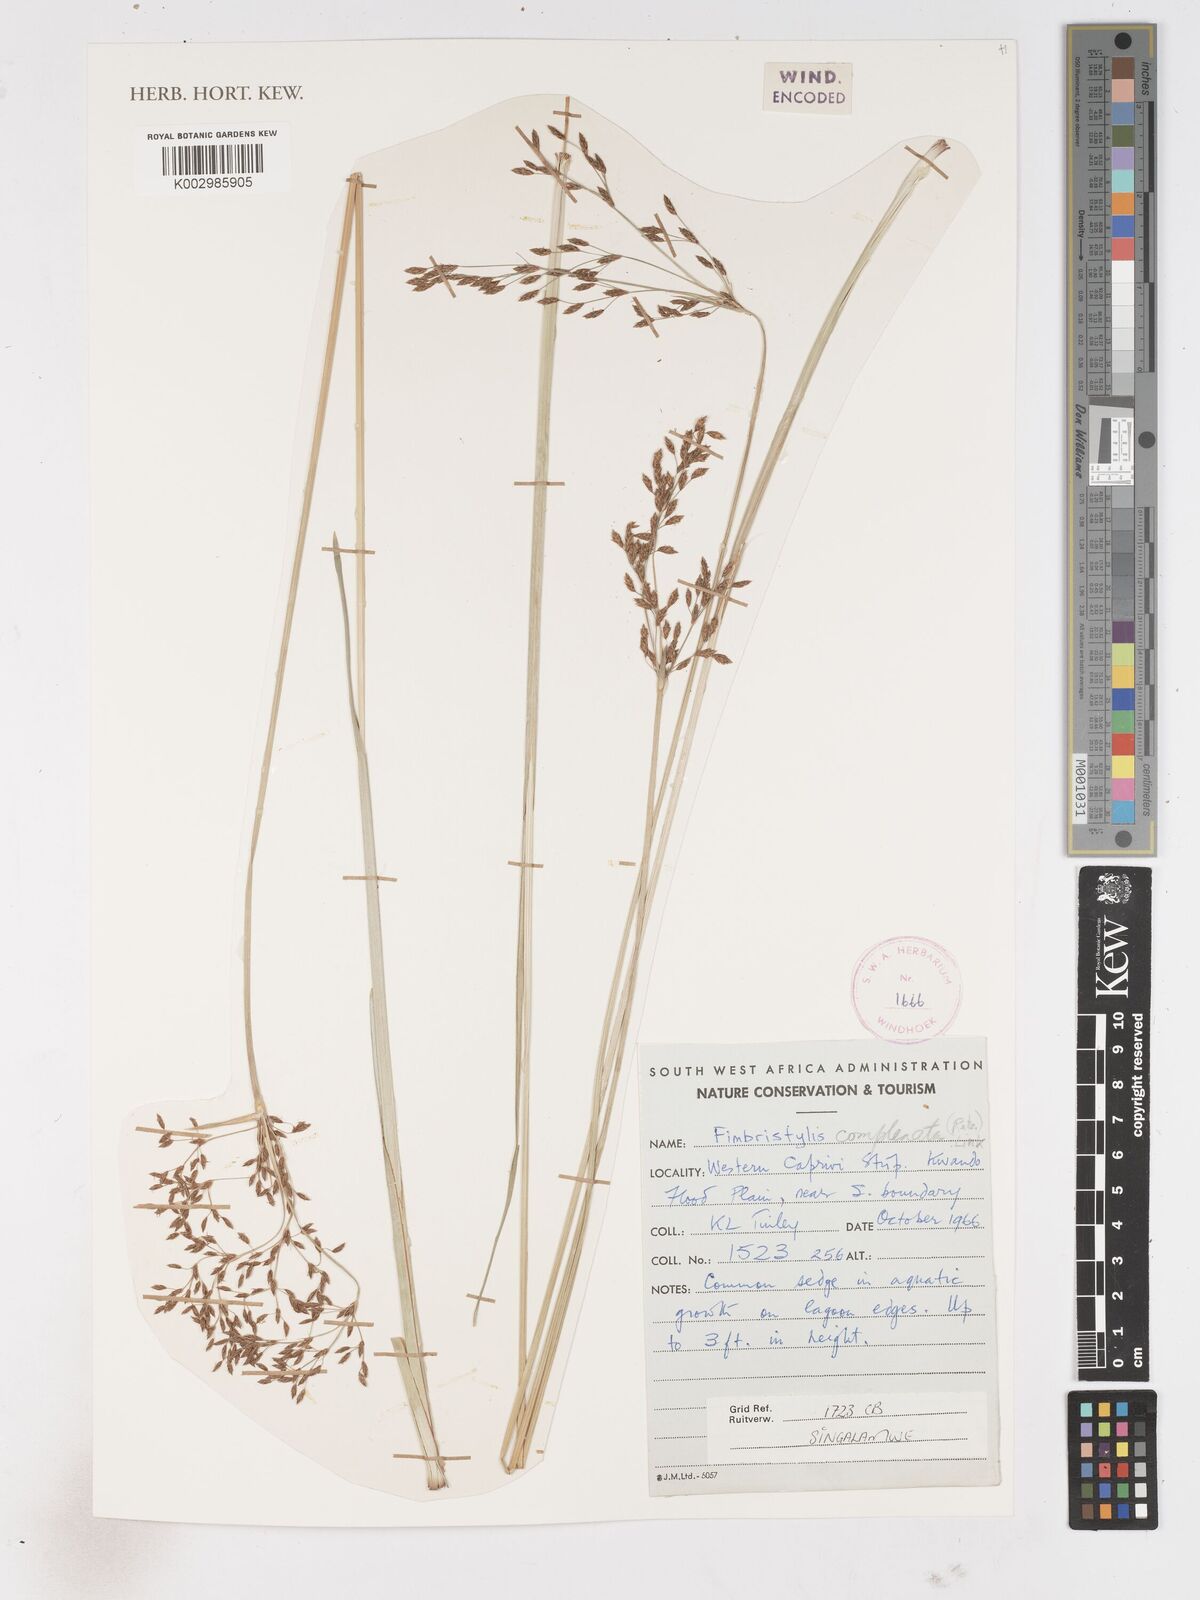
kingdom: Plantae
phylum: Tracheophyta
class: Liliopsida
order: Poales
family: Cyperaceae
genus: Fimbristylis
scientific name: Fimbristylis complanata
